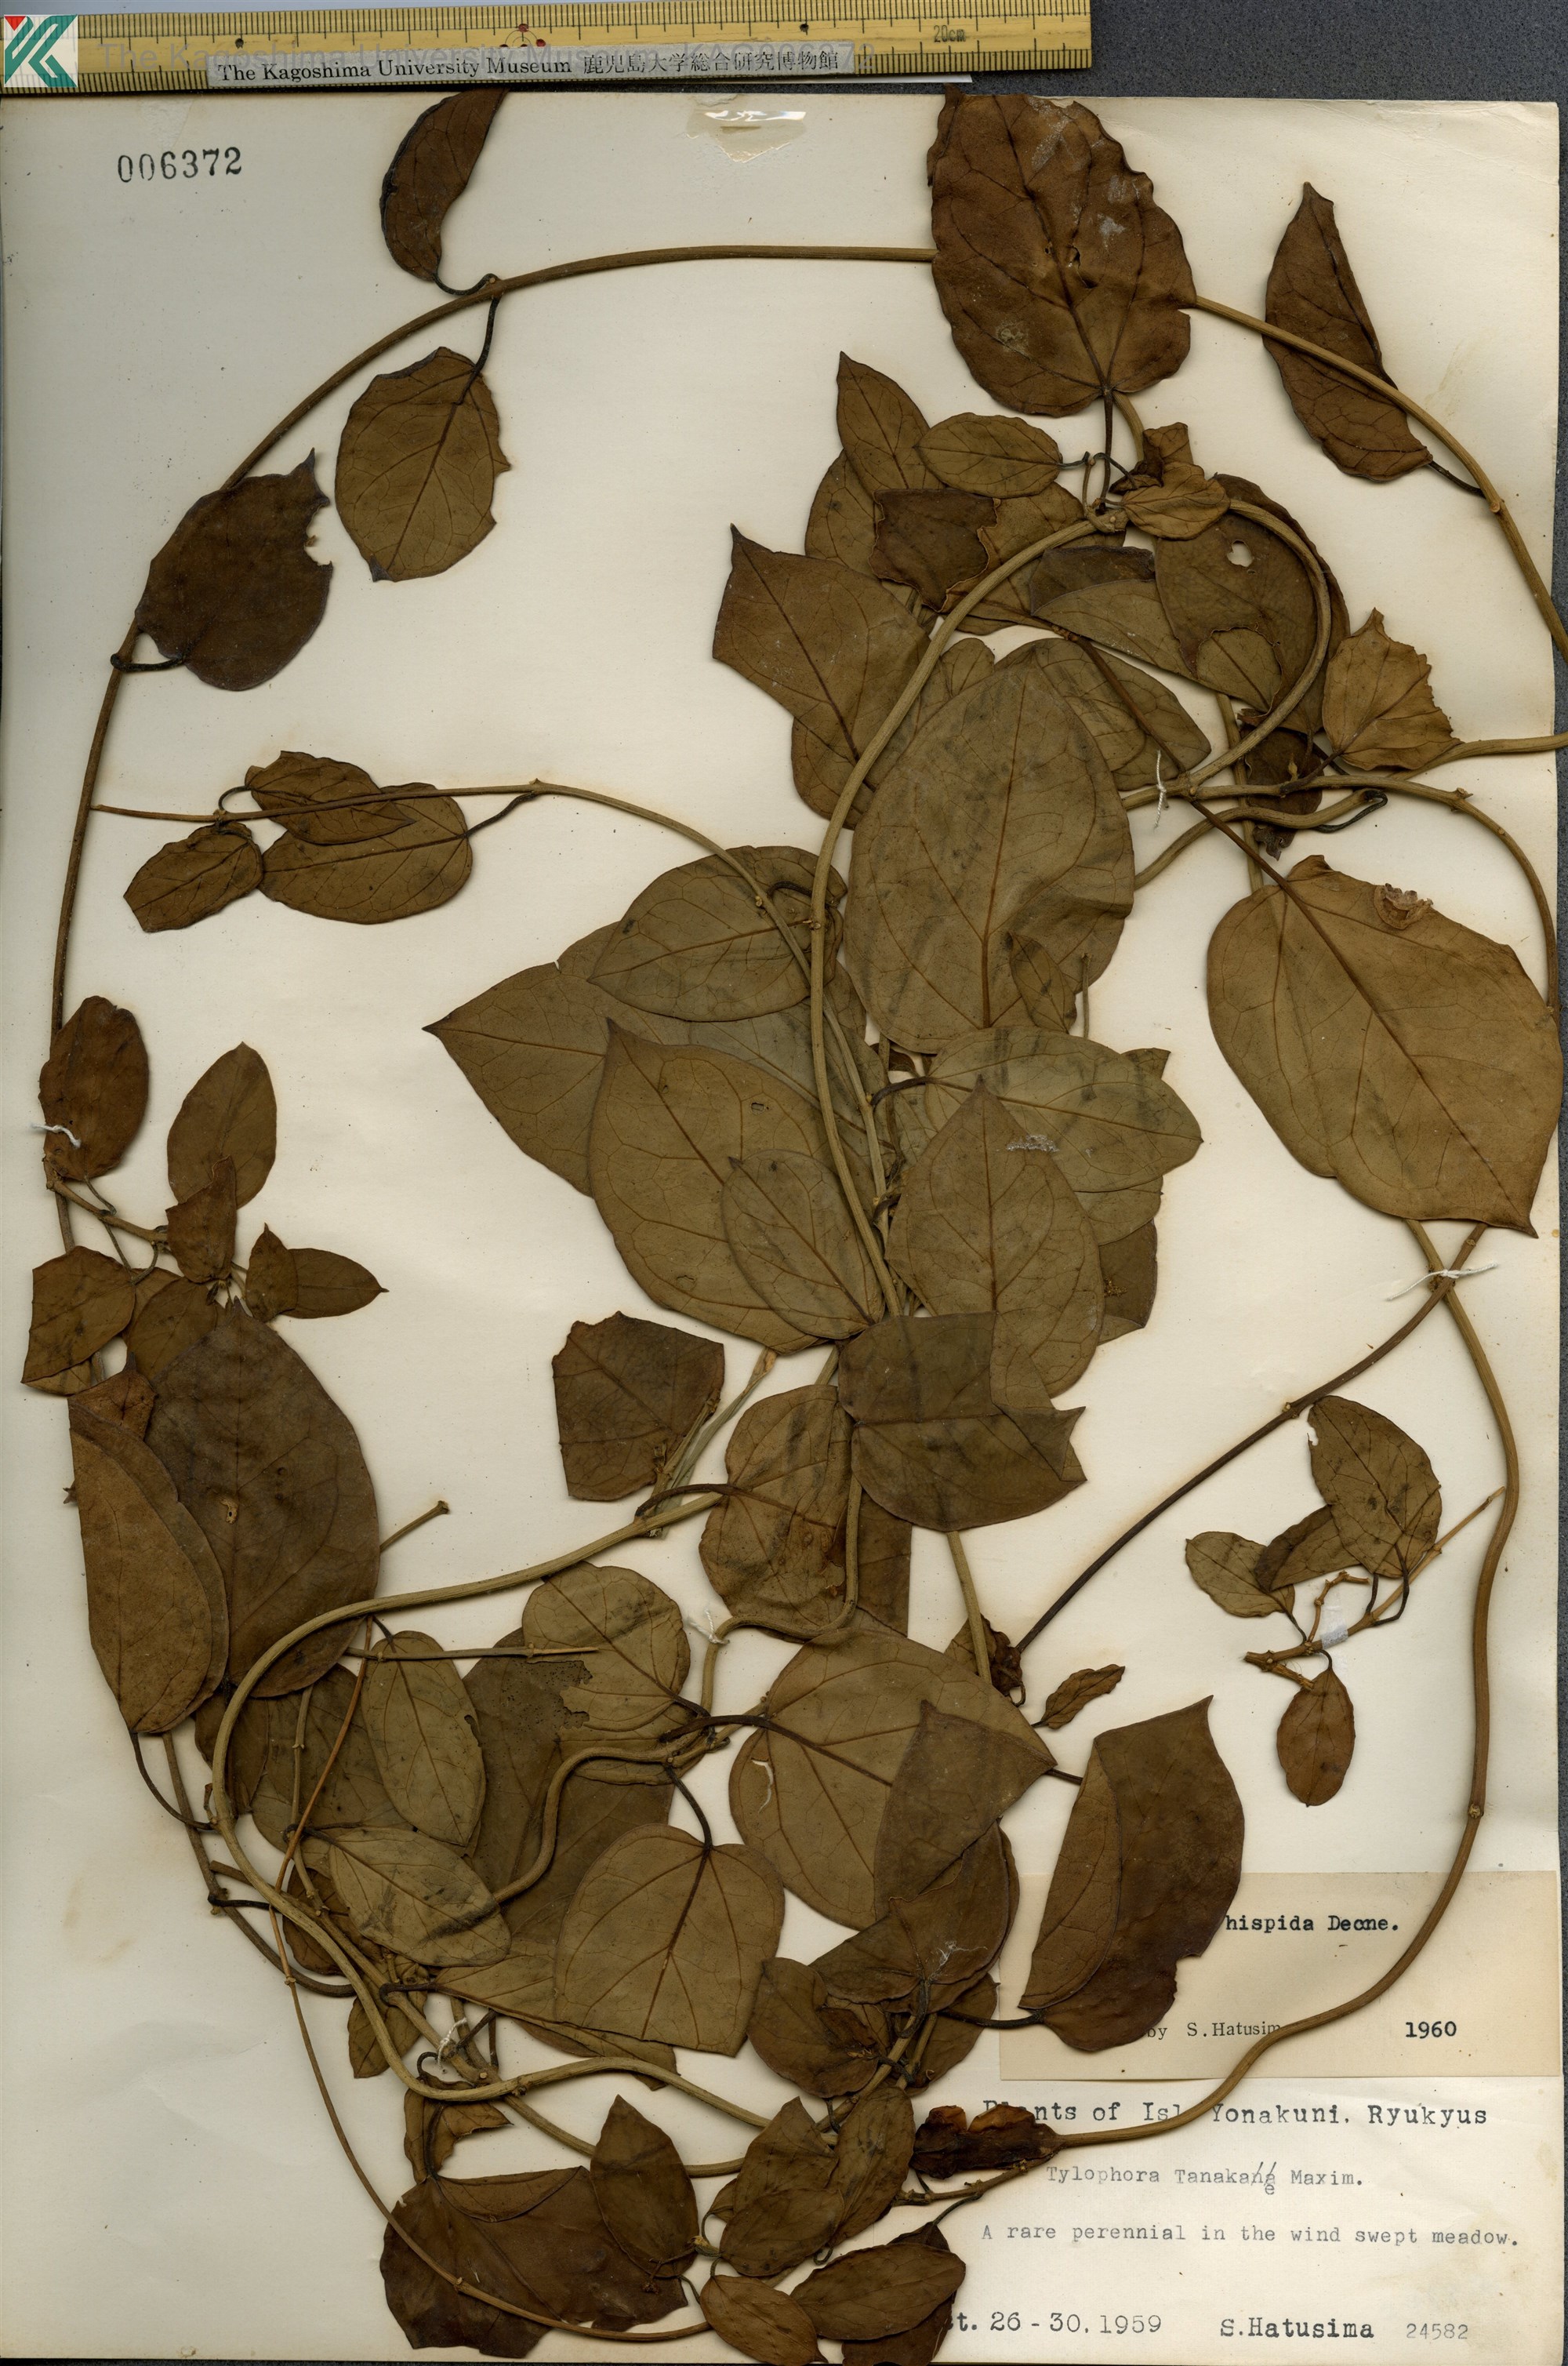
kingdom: Plantae
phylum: Tracheophyta
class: Magnoliopsida
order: Gentianales
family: Apocynaceae
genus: Vincetoxicum
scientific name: Vincetoxicum hirsutum
